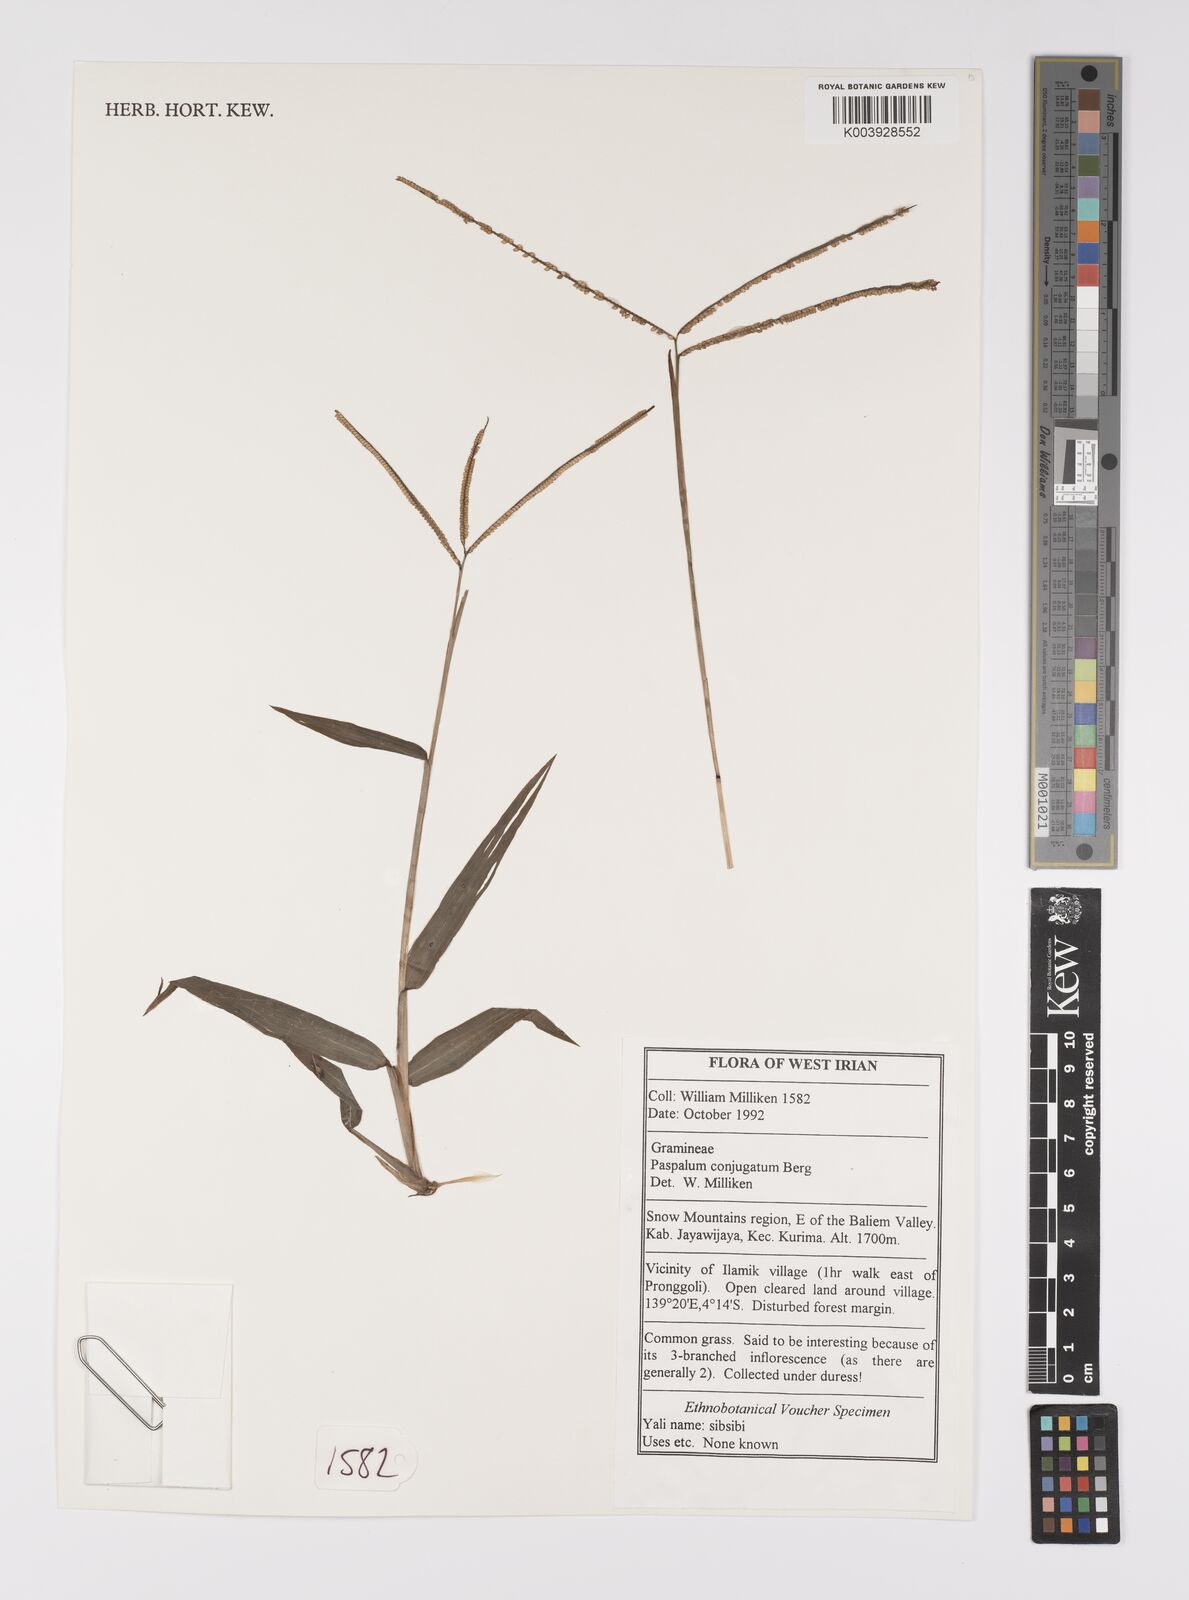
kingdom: Plantae
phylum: Tracheophyta
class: Liliopsida
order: Poales
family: Poaceae
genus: Paspalum
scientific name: Paspalum conjugatum
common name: Hilograss
